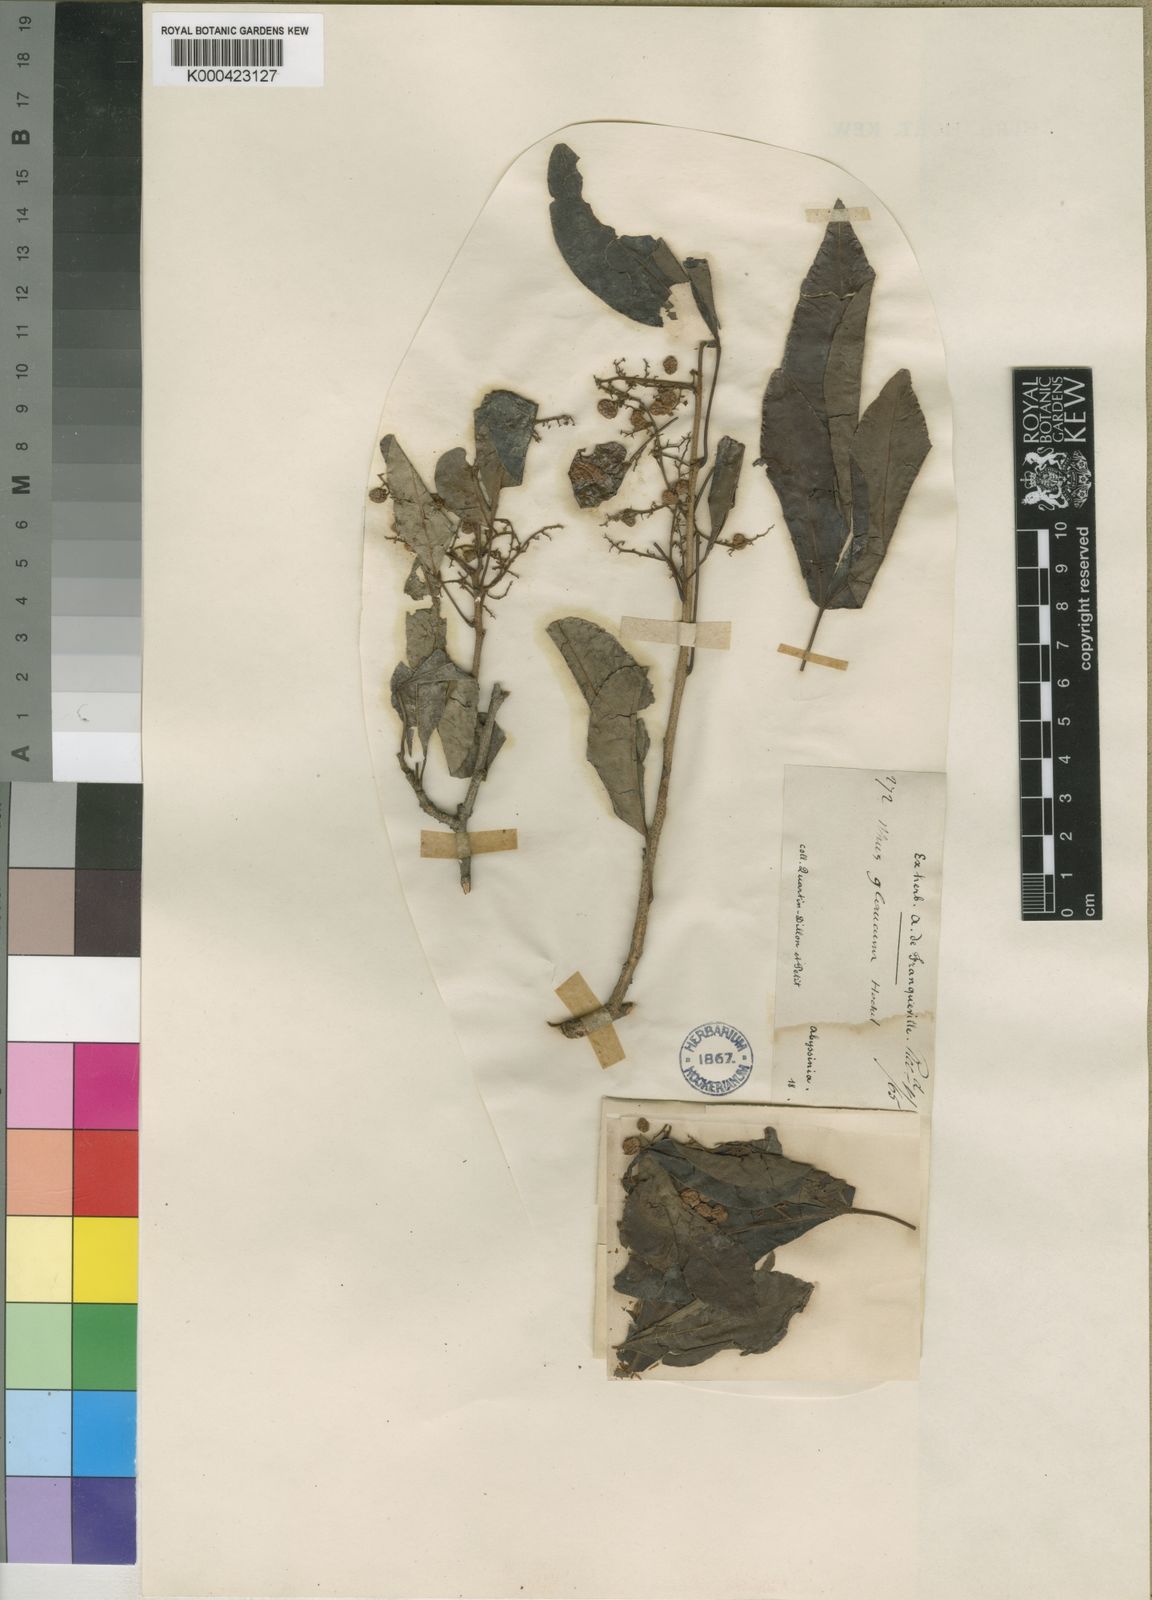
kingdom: Plantae
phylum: Tracheophyta
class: Magnoliopsida
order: Sapindales
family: Anacardiaceae
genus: Searsia
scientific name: Searsia natalensis
